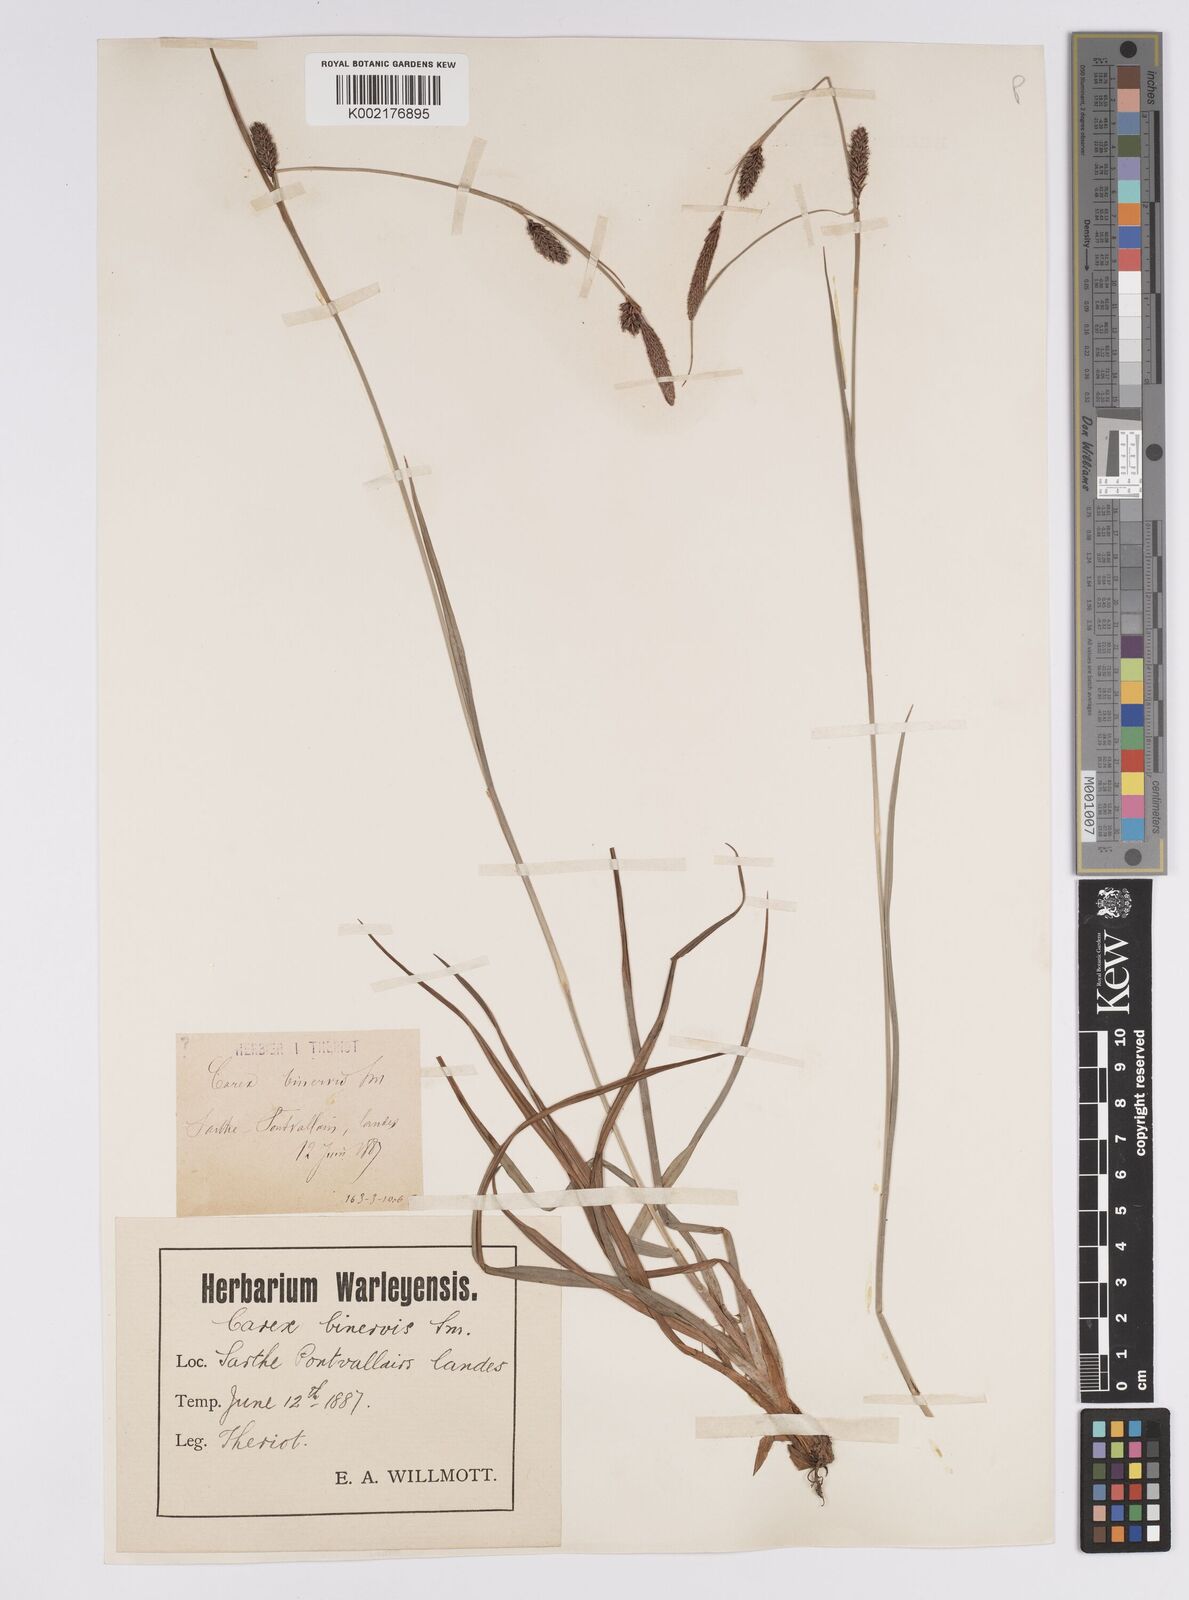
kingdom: Plantae
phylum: Tracheophyta
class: Liliopsida
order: Poales
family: Cyperaceae
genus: Carex
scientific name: Carex binervis
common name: Green-ribbed sedge
